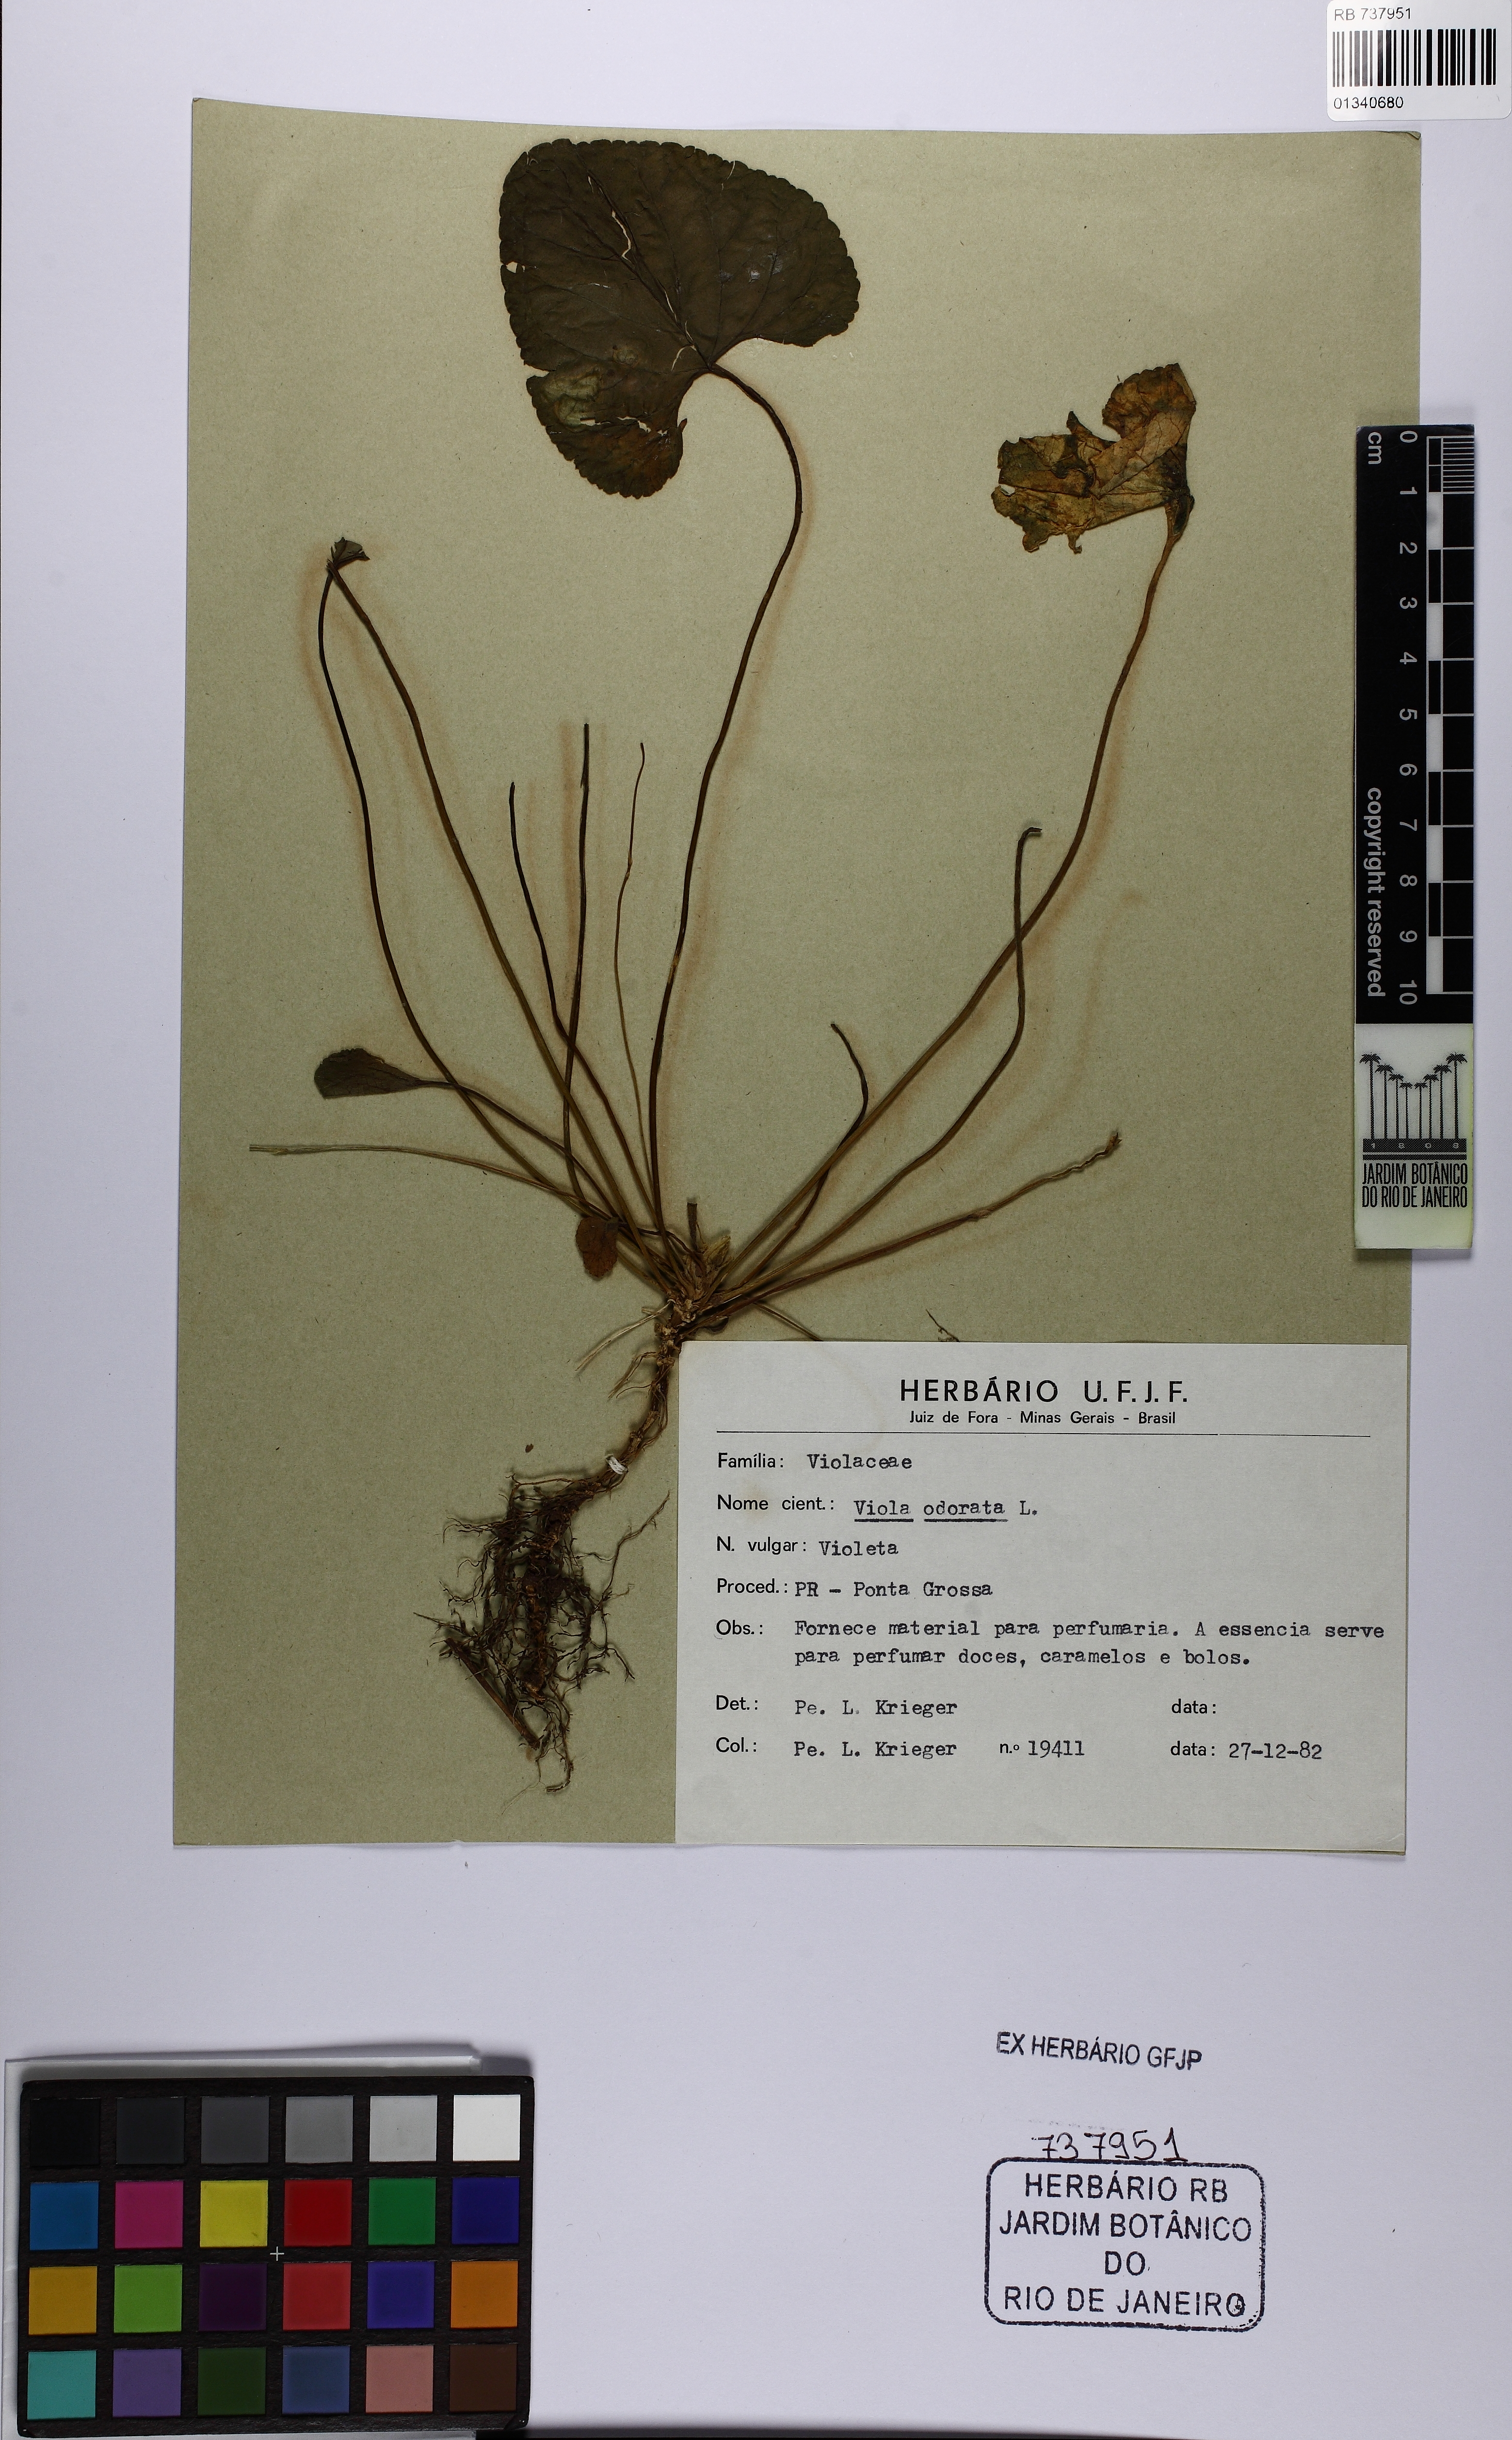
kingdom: Plantae
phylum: Tracheophyta
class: Magnoliopsida
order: Malpighiales
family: Violaceae
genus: Viola
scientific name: Viola odorata
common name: Sweet violet
